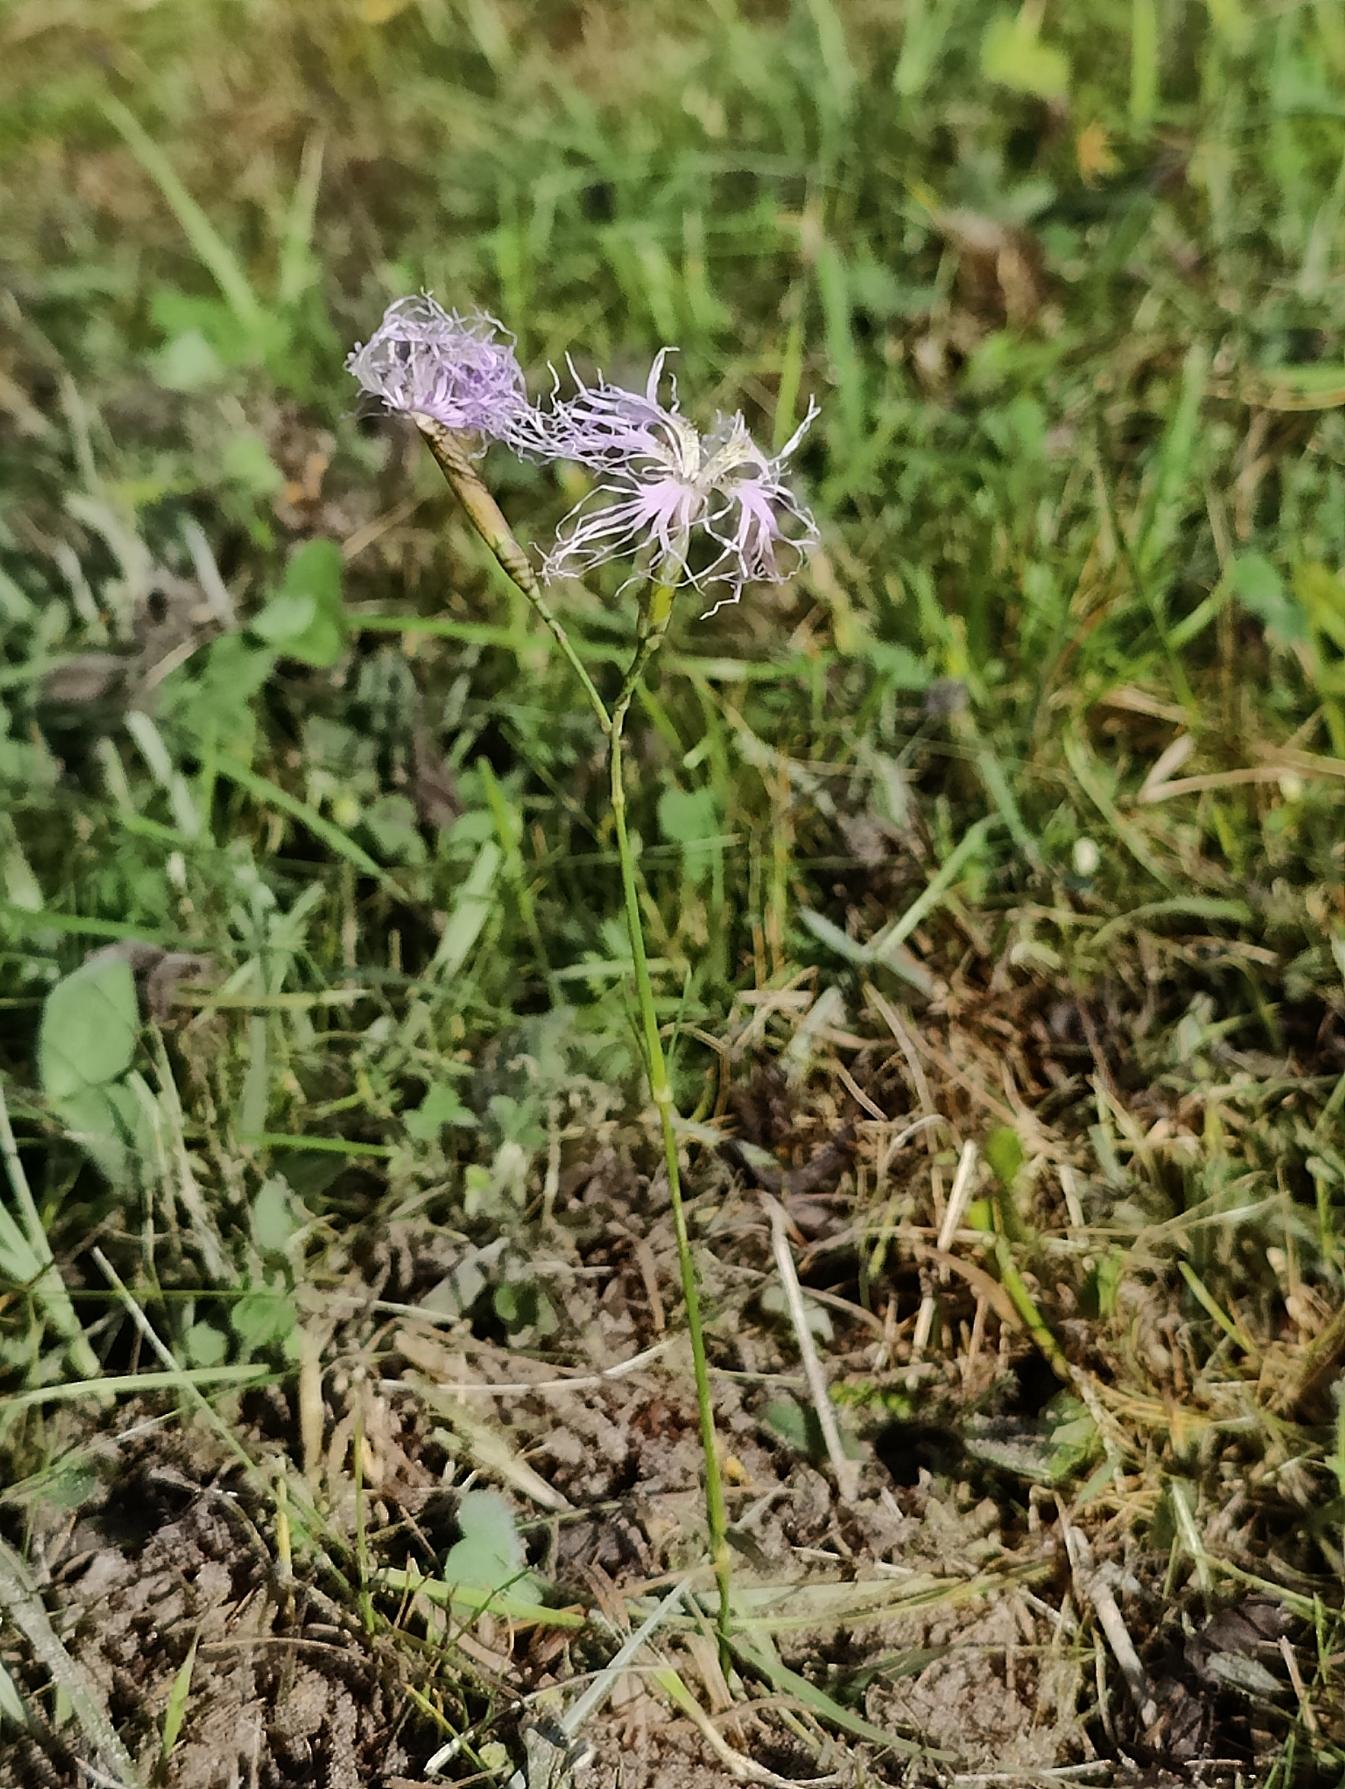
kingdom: Plantae
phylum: Tracheophyta
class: Magnoliopsida
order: Caryophyllales
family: Caryophyllaceae
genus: Dianthus
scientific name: Dianthus superbus
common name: Strand-nellike
